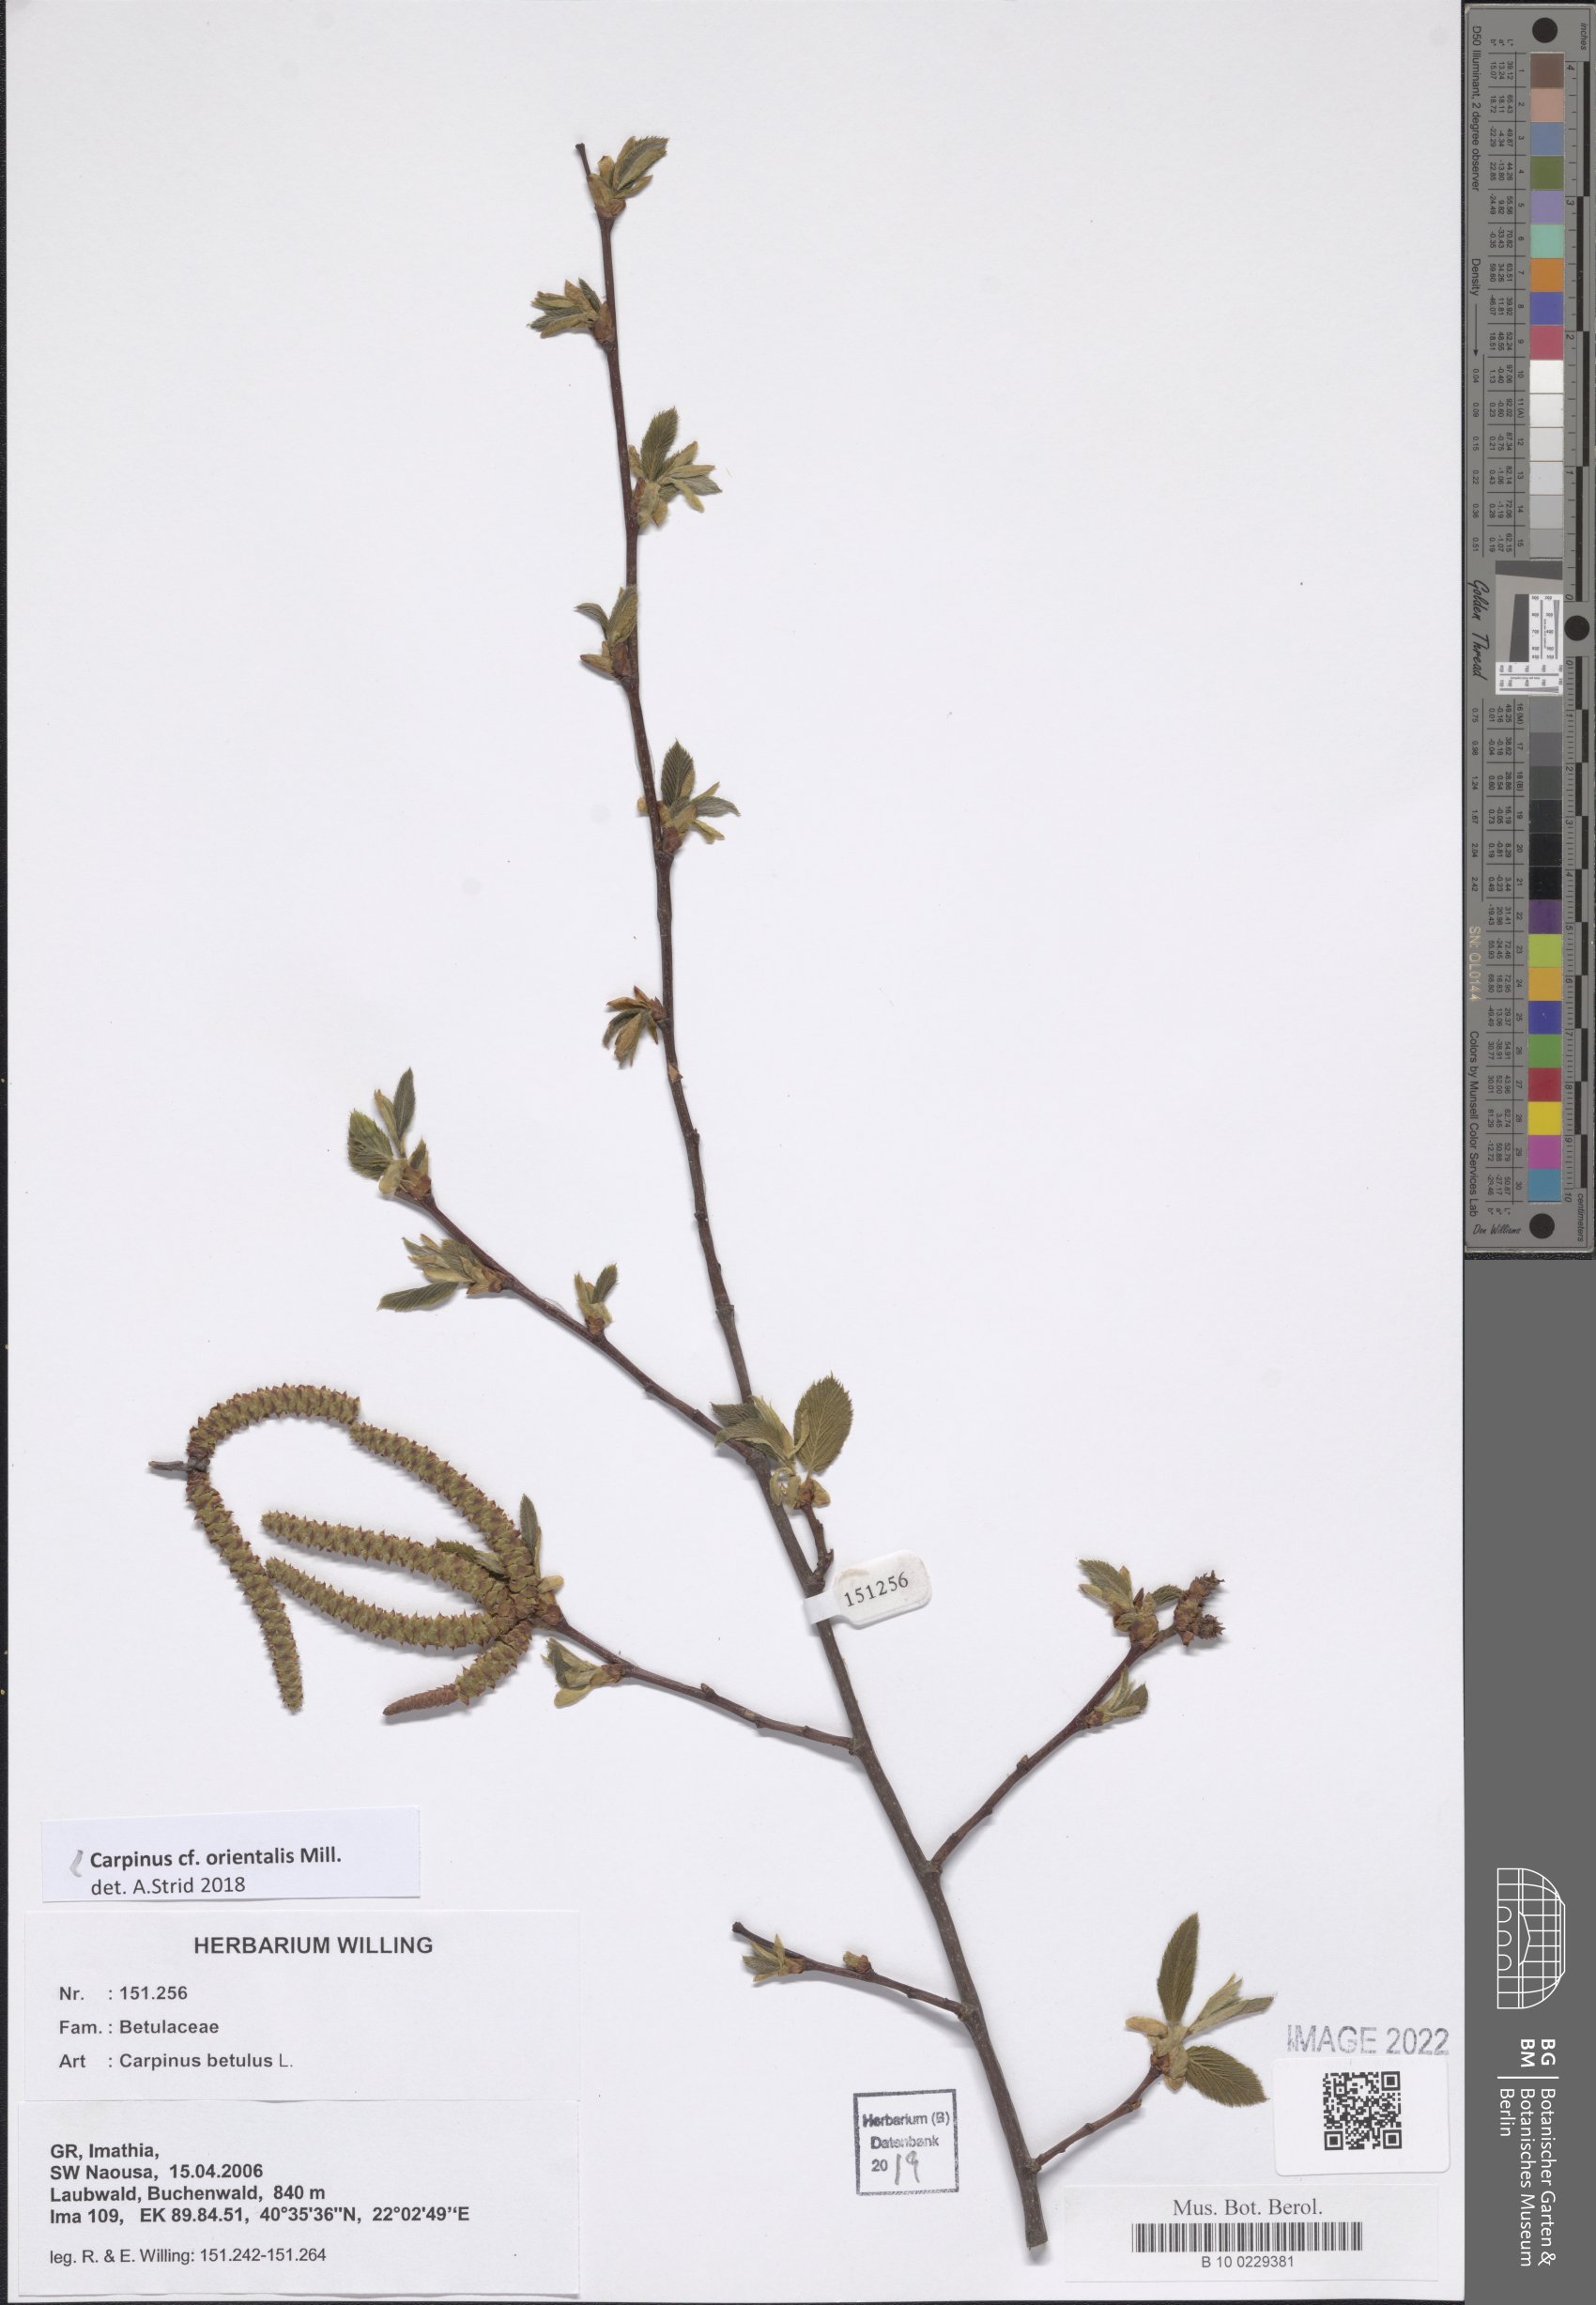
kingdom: Plantae
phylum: Tracheophyta
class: Magnoliopsida
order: Fagales
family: Betulaceae
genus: Carpinus
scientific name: Carpinus orientalis
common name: Eastern hornbeam
